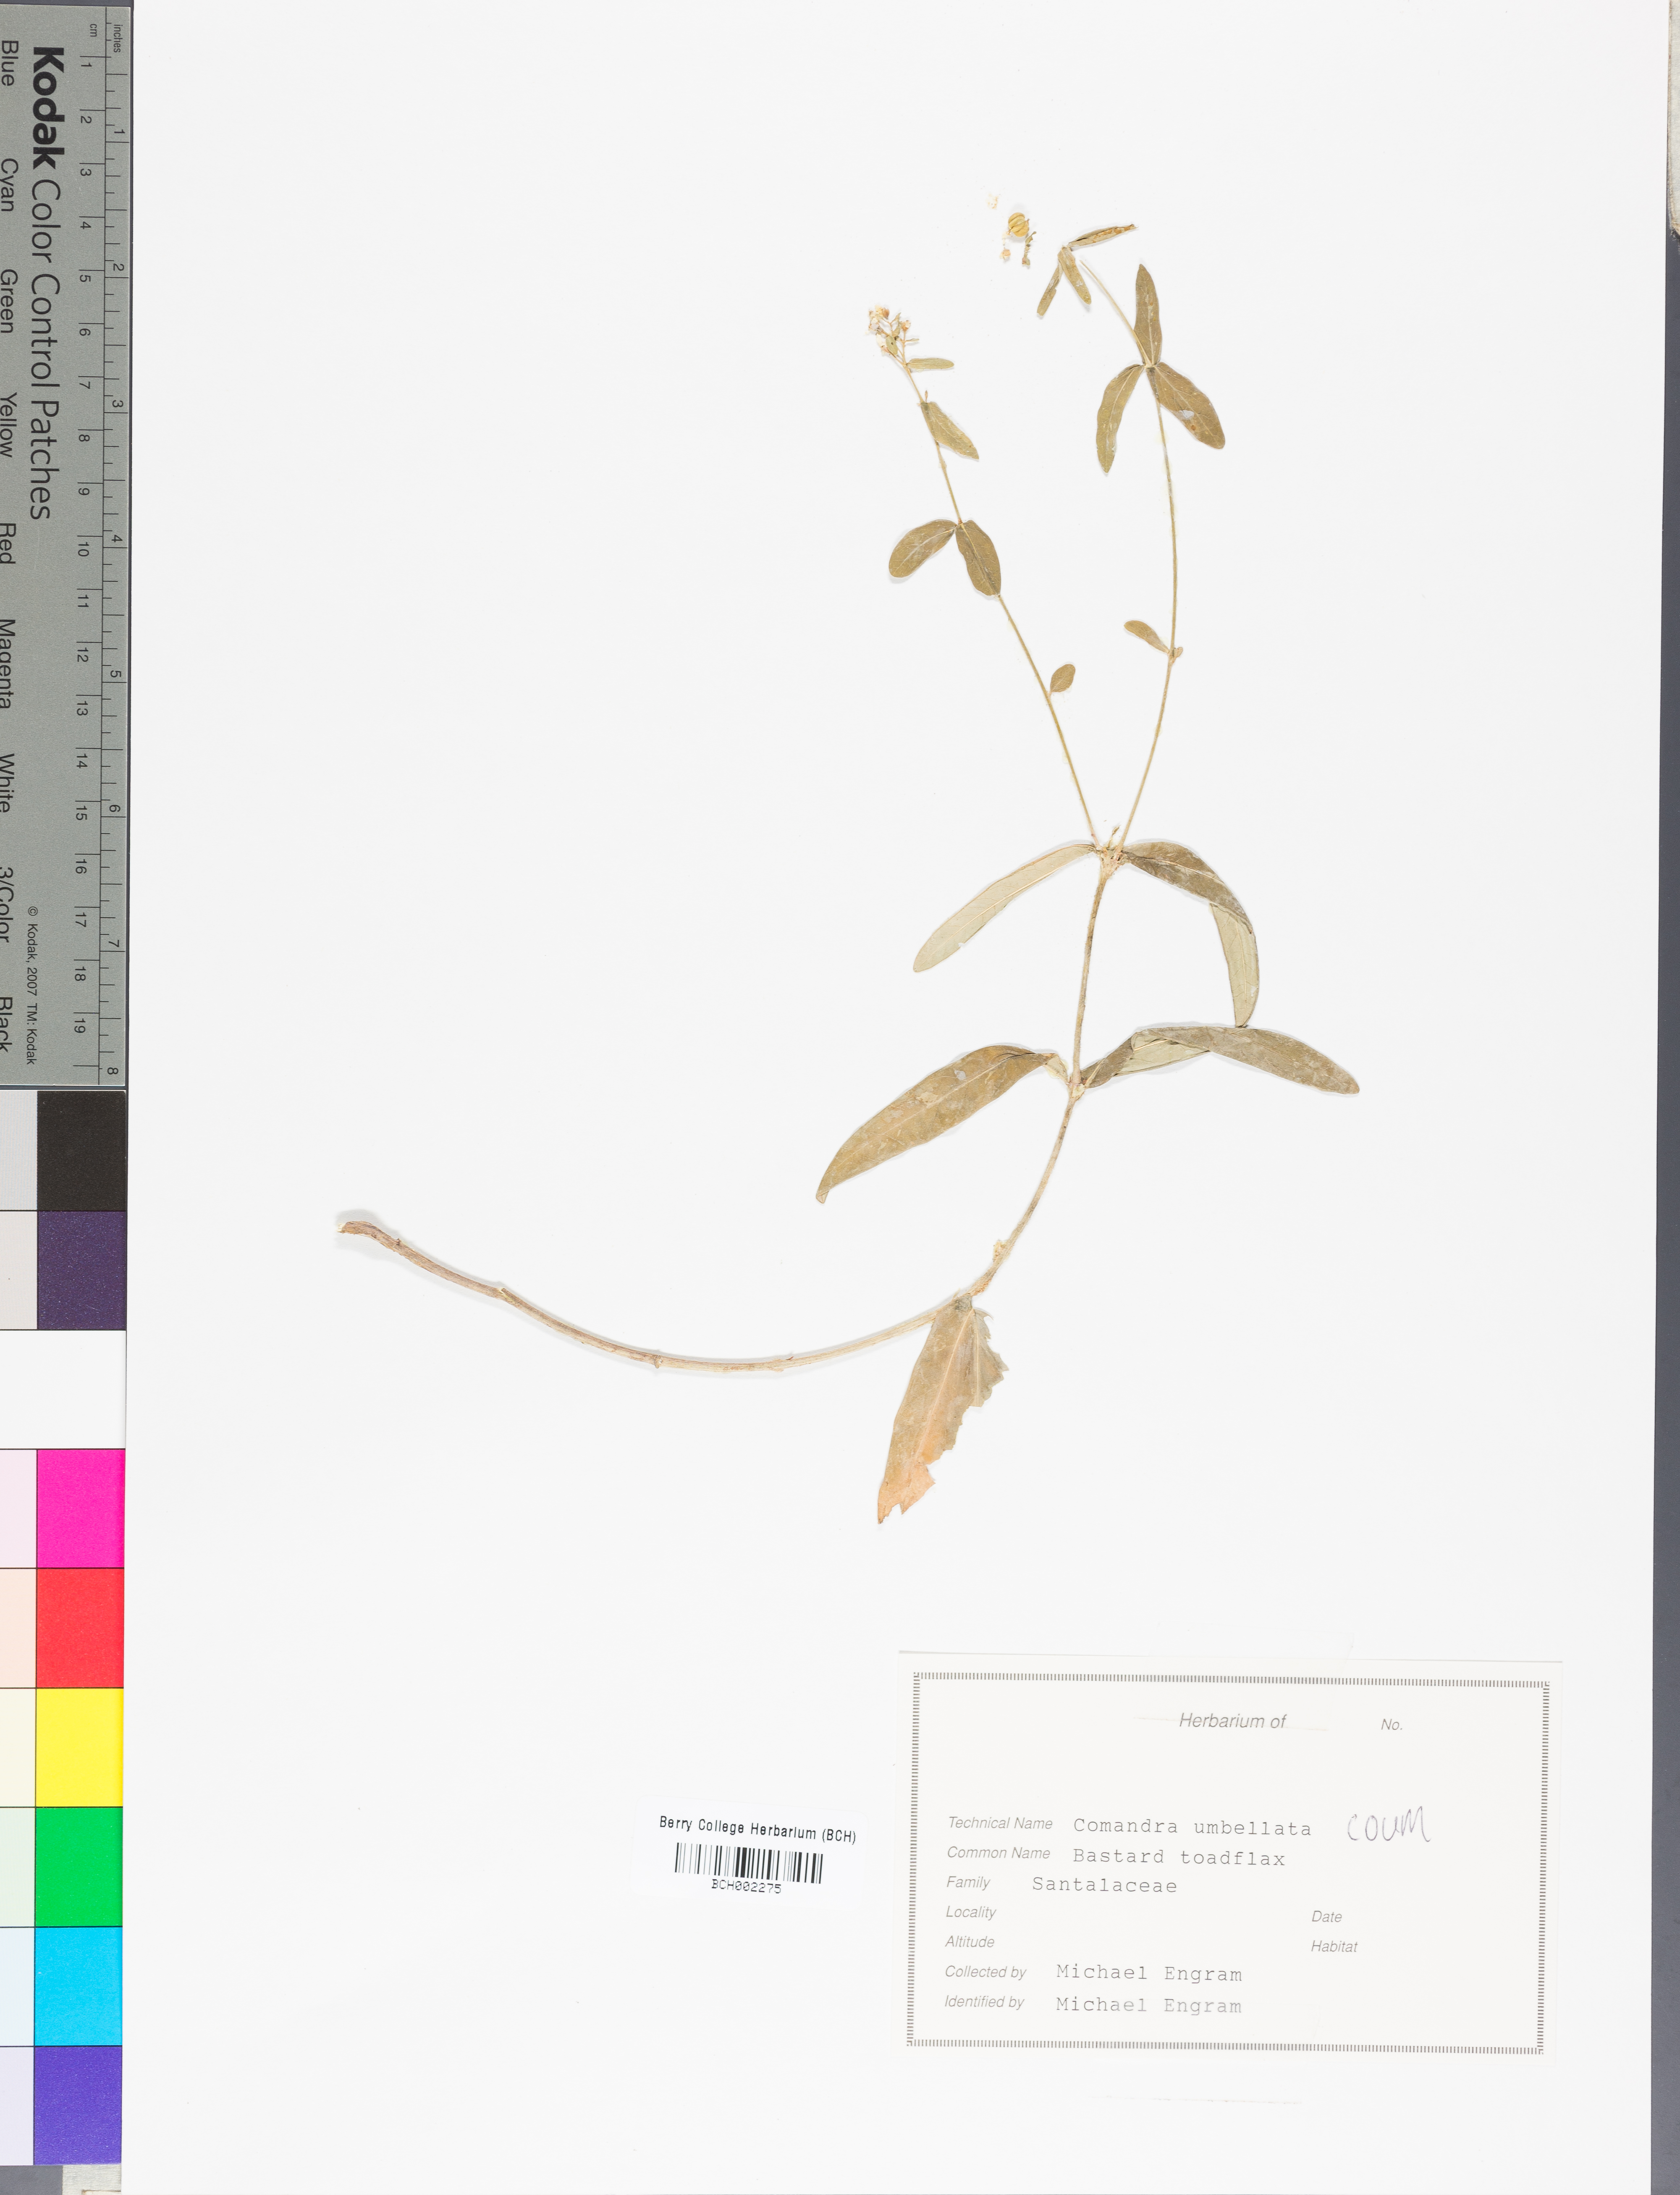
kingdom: Plantae
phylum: Tracheophyta
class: Magnoliopsida
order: Santalales
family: Comandraceae
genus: Comandra
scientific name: Comandra umbellata
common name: Bastard toadflax
